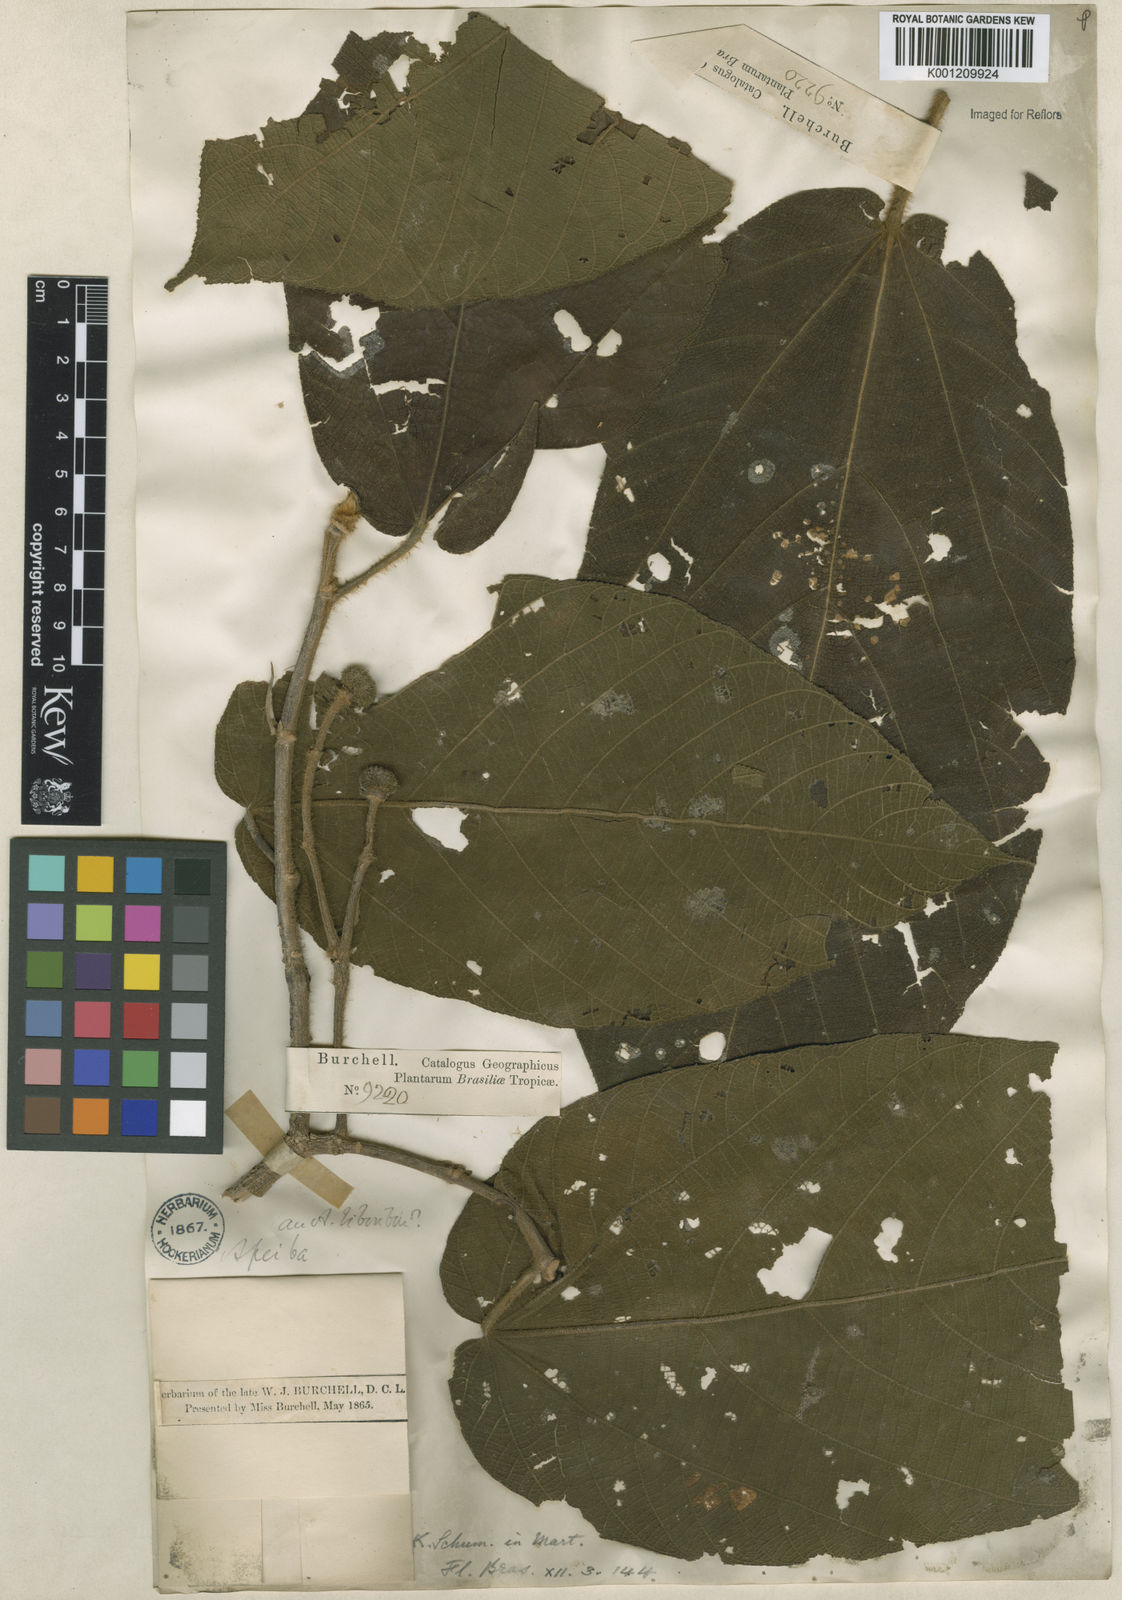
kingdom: Plantae
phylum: Tracheophyta
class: Magnoliopsida
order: Malvales
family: Malvaceae
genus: Apeiba
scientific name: Apeiba tibourbou
